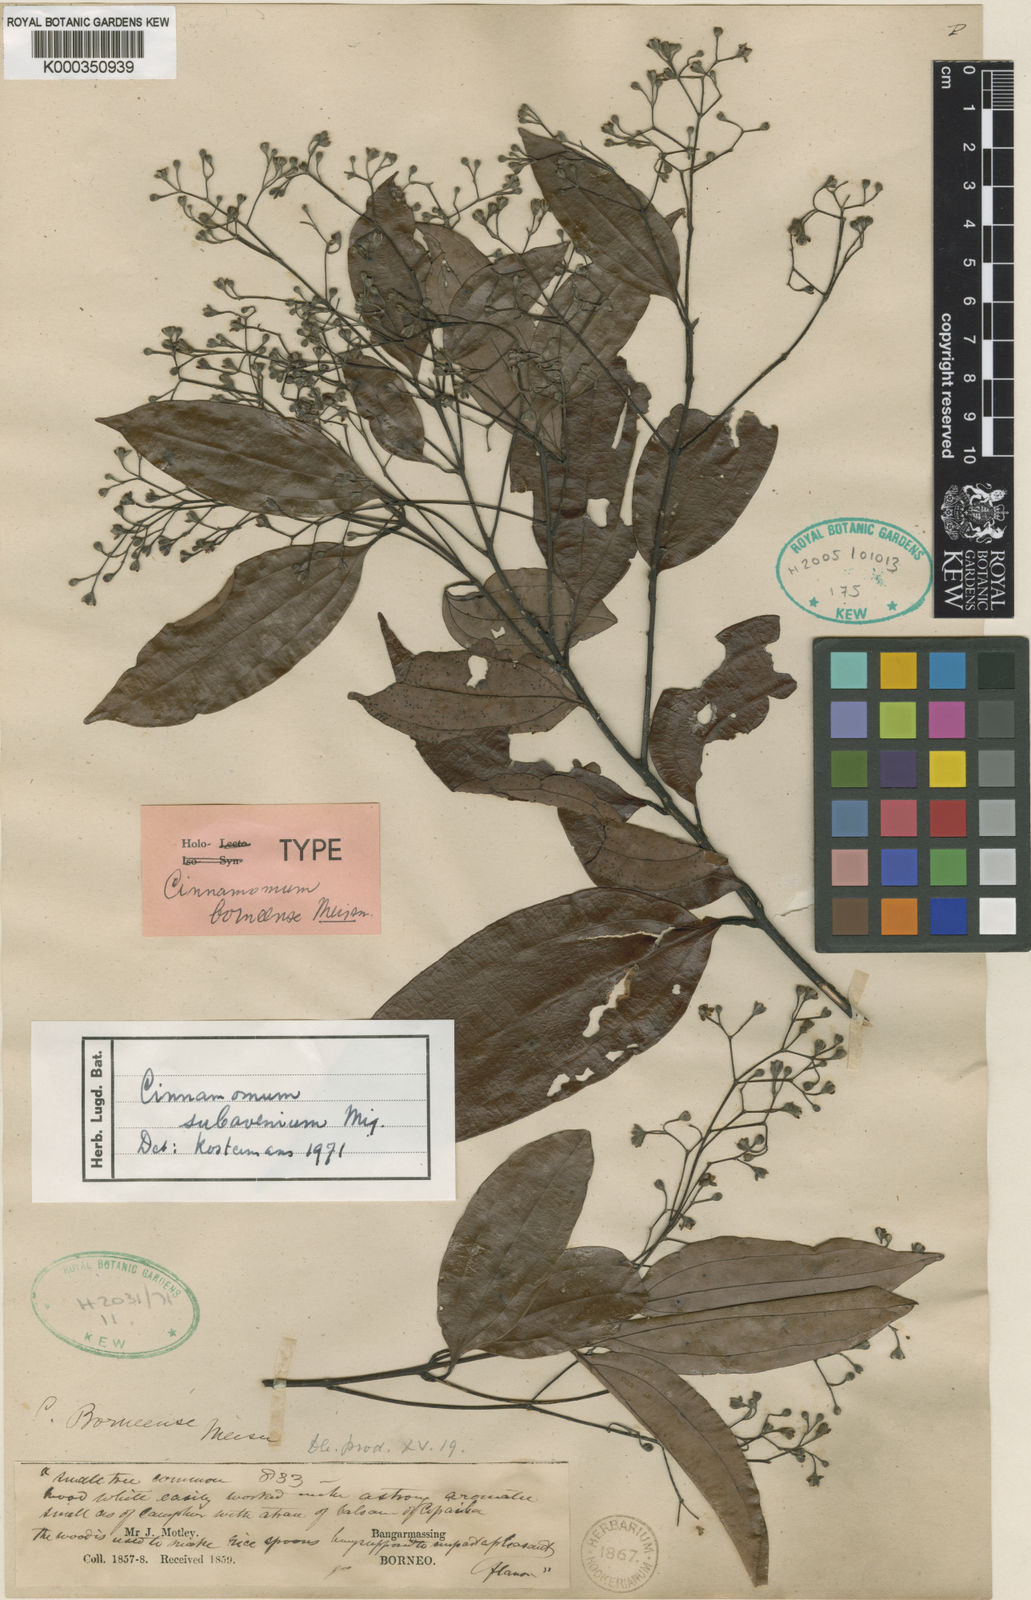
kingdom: Plantae
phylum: Tracheophyta
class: Magnoliopsida
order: Laurales
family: Lauraceae
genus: Cinnamomum
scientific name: Cinnamomum subavenium
